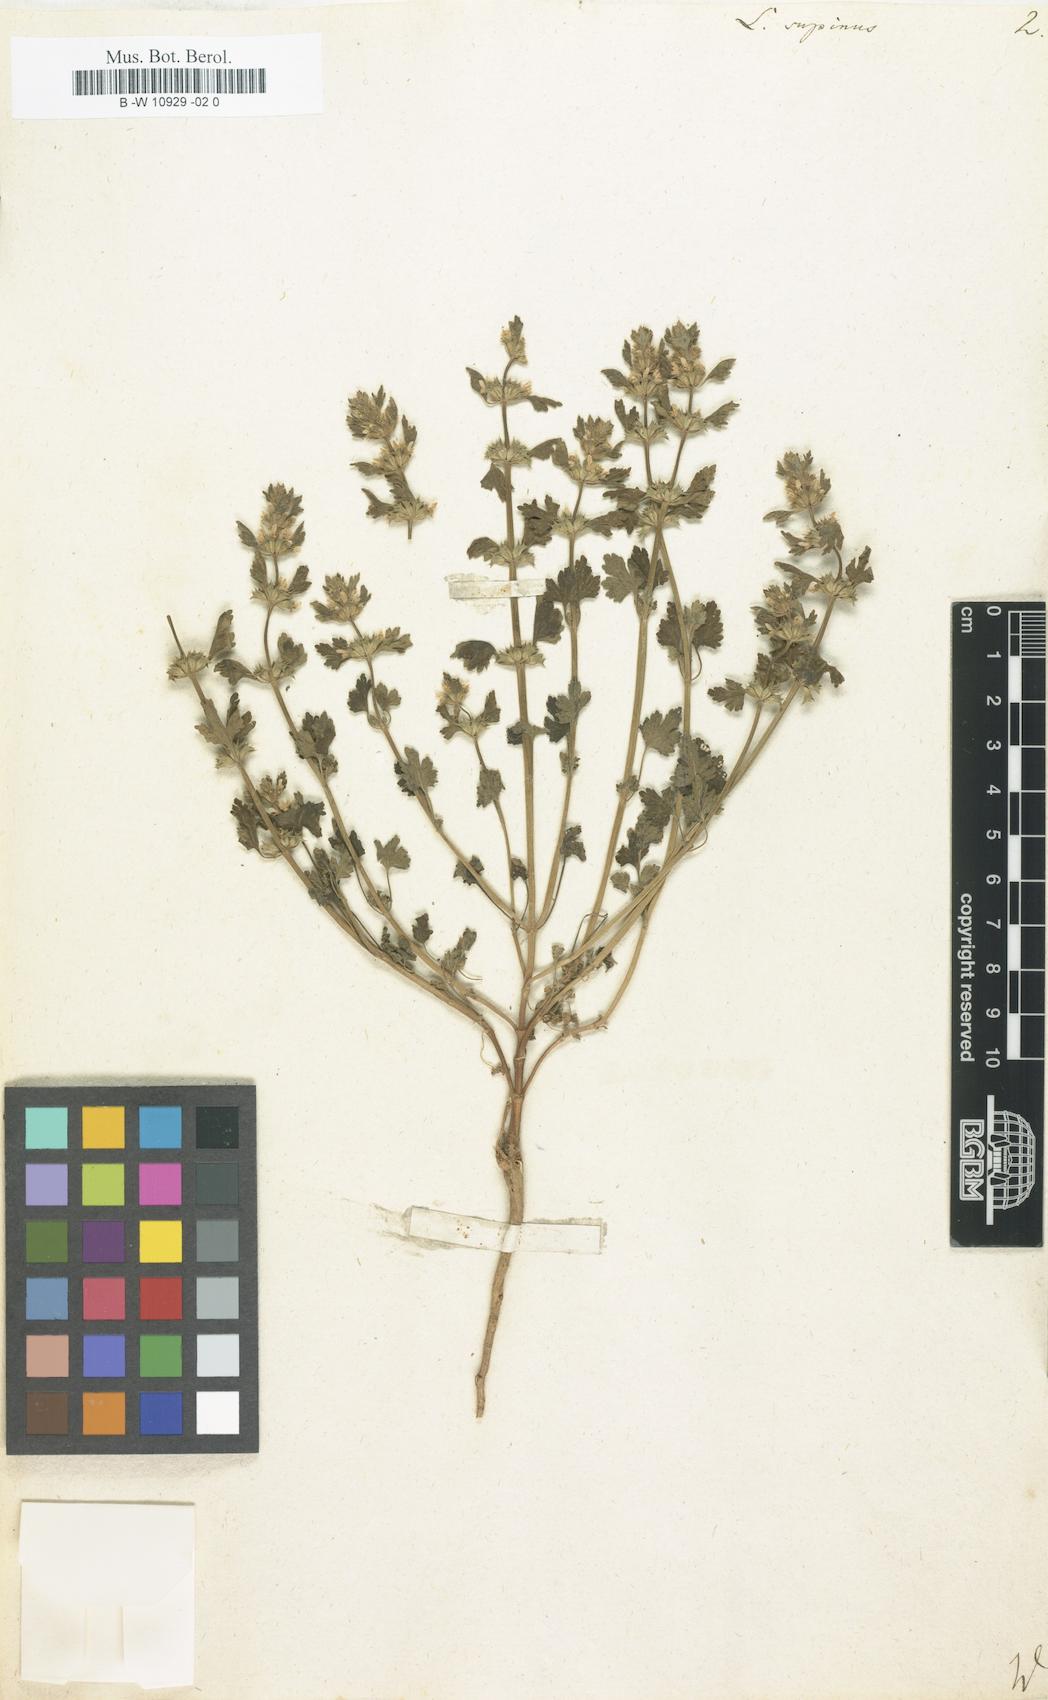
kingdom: Plantae
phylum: Tracheophyta
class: Magnoliopsida
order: Lamiales
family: Lamiaceae
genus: Lagopsis
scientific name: Lagopsis supina
